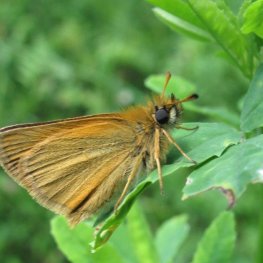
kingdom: Animalia
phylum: Arthropoda
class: Insecta
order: Lepidoptera
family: Hesperiidae
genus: Thymelicus
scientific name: Thymelicus lineola
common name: European Skipper
